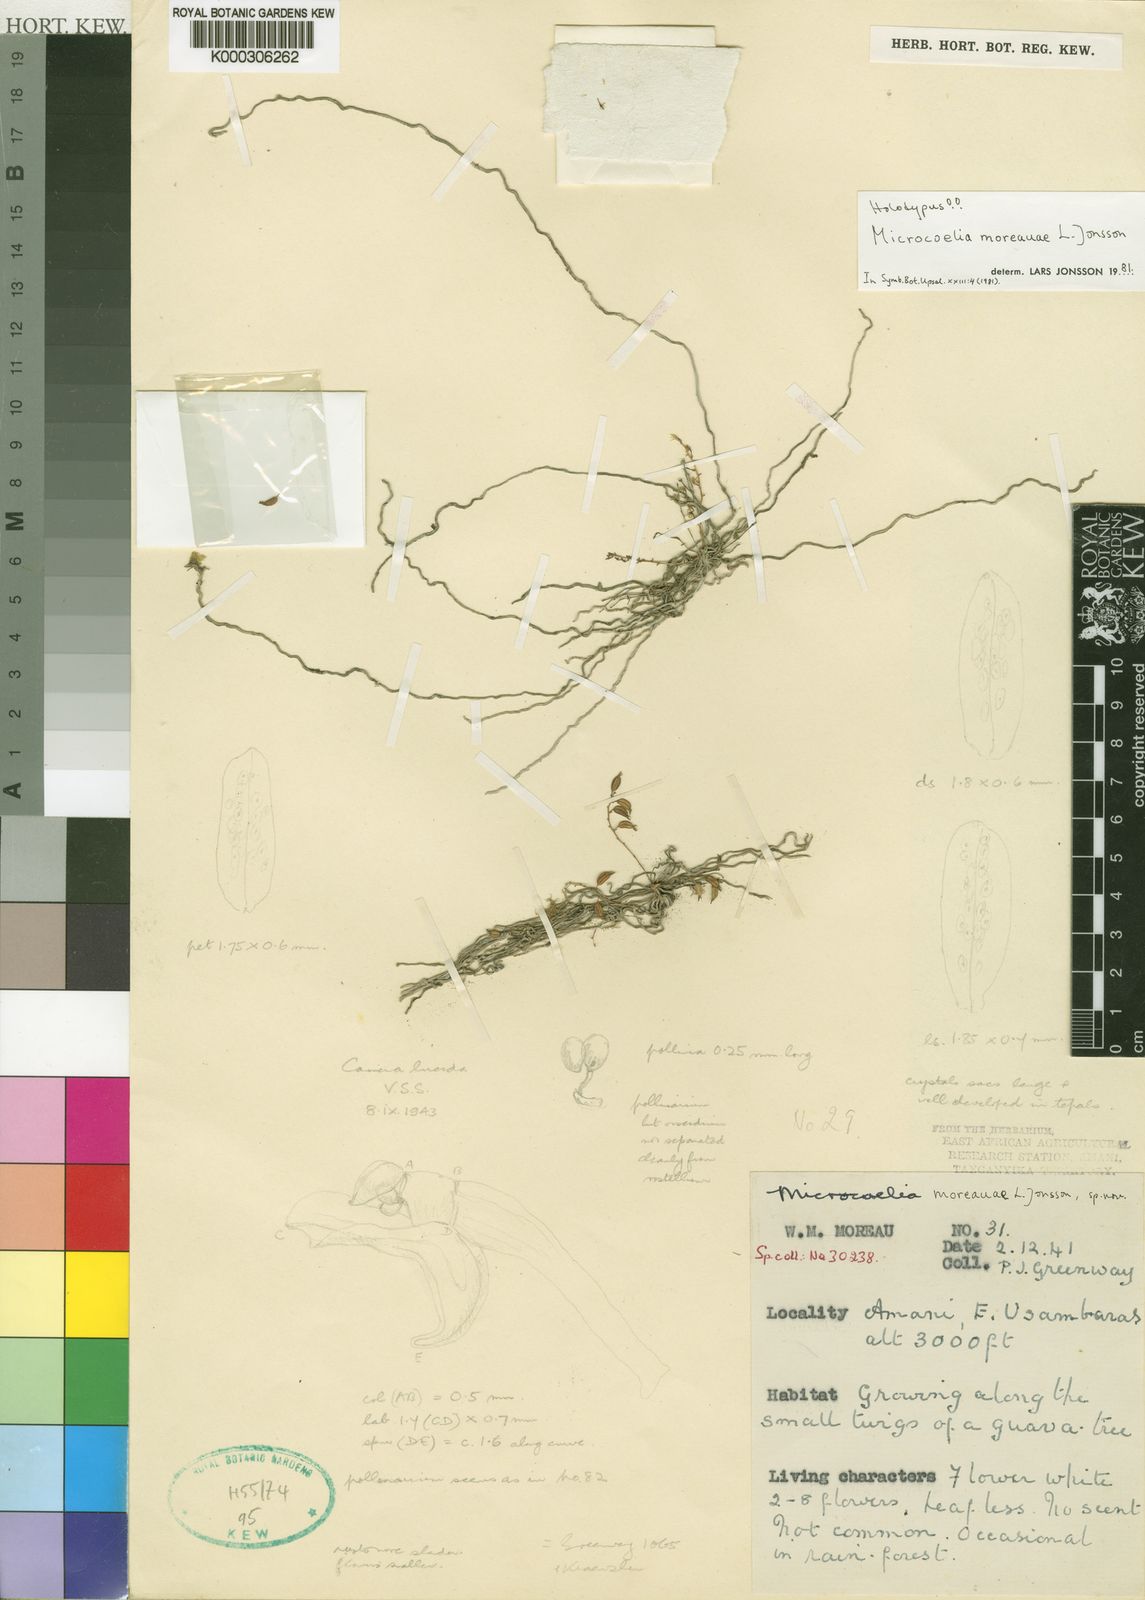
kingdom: Plantae
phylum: Tracheophyta
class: Liliopsida
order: Asparagales
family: Orchidaceae
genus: Microcoelia
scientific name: Microcoelia moreauae
